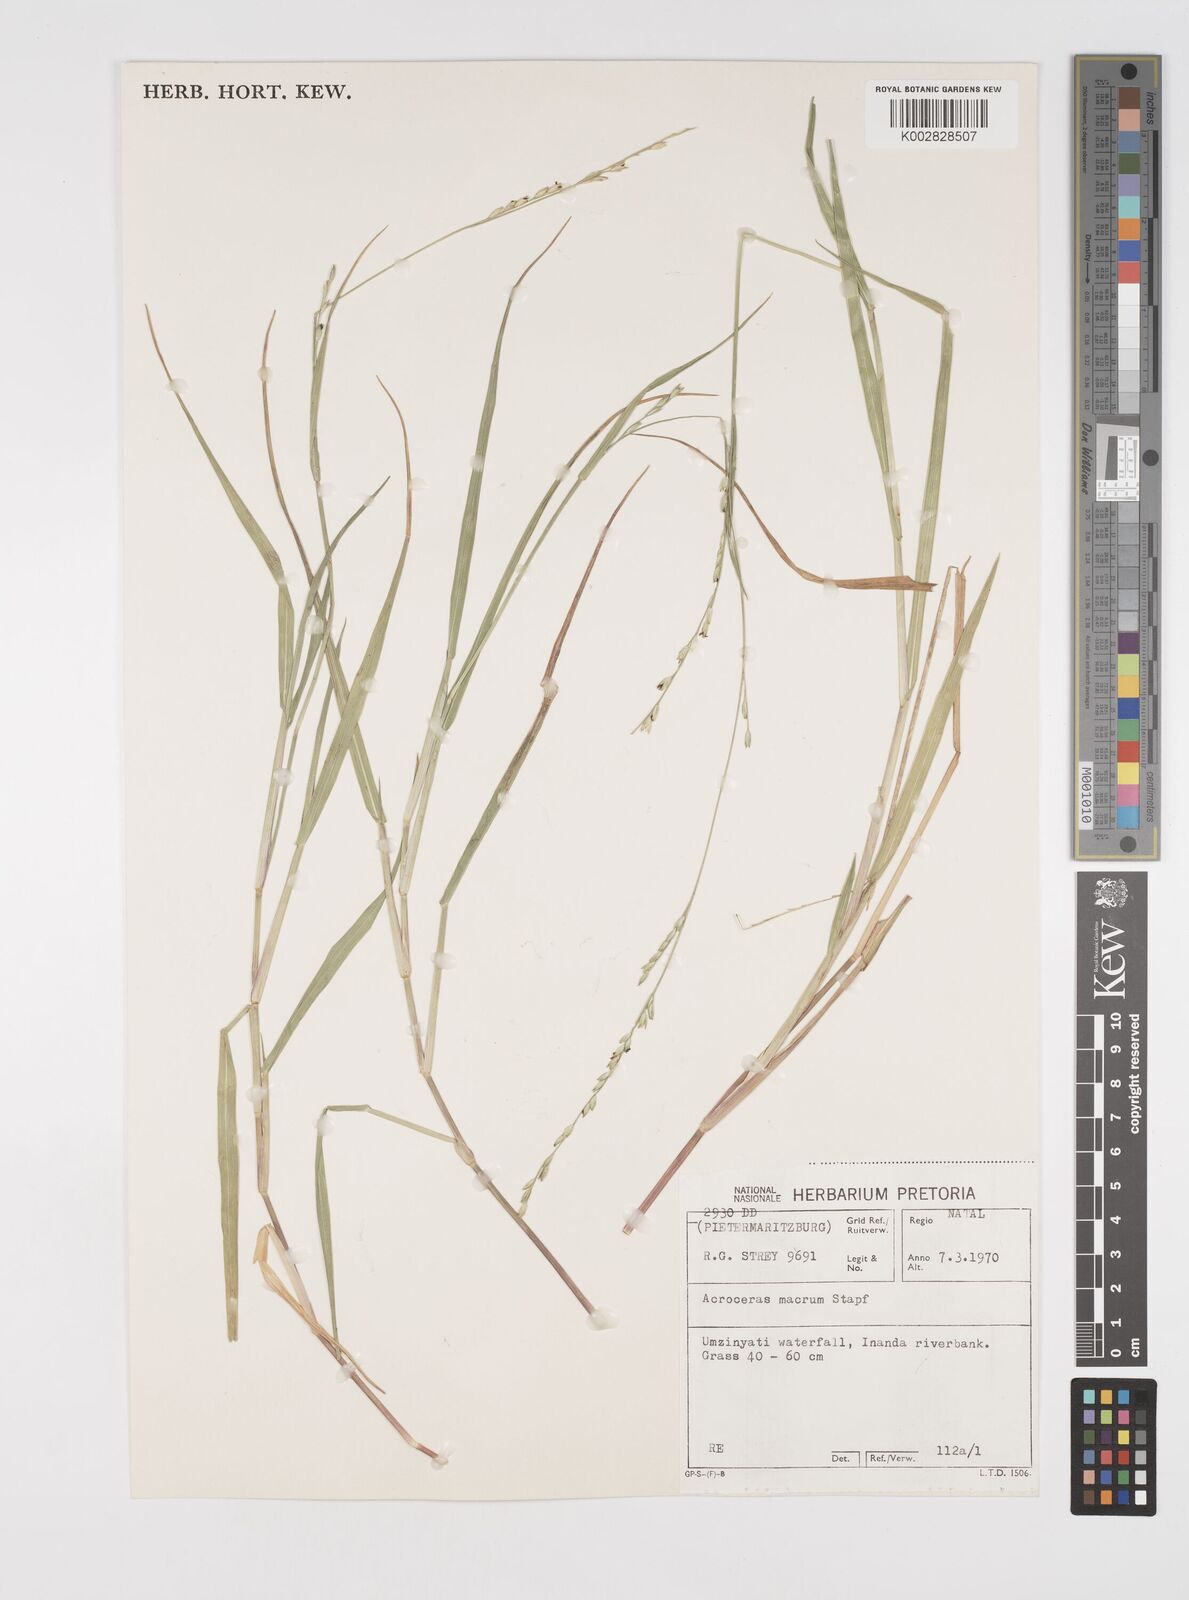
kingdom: Plantae
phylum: Tracheophyta
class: Liliopsida
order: Poales
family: Poaceae
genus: Acroceras
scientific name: Acroceras macrum
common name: Nyl grass
